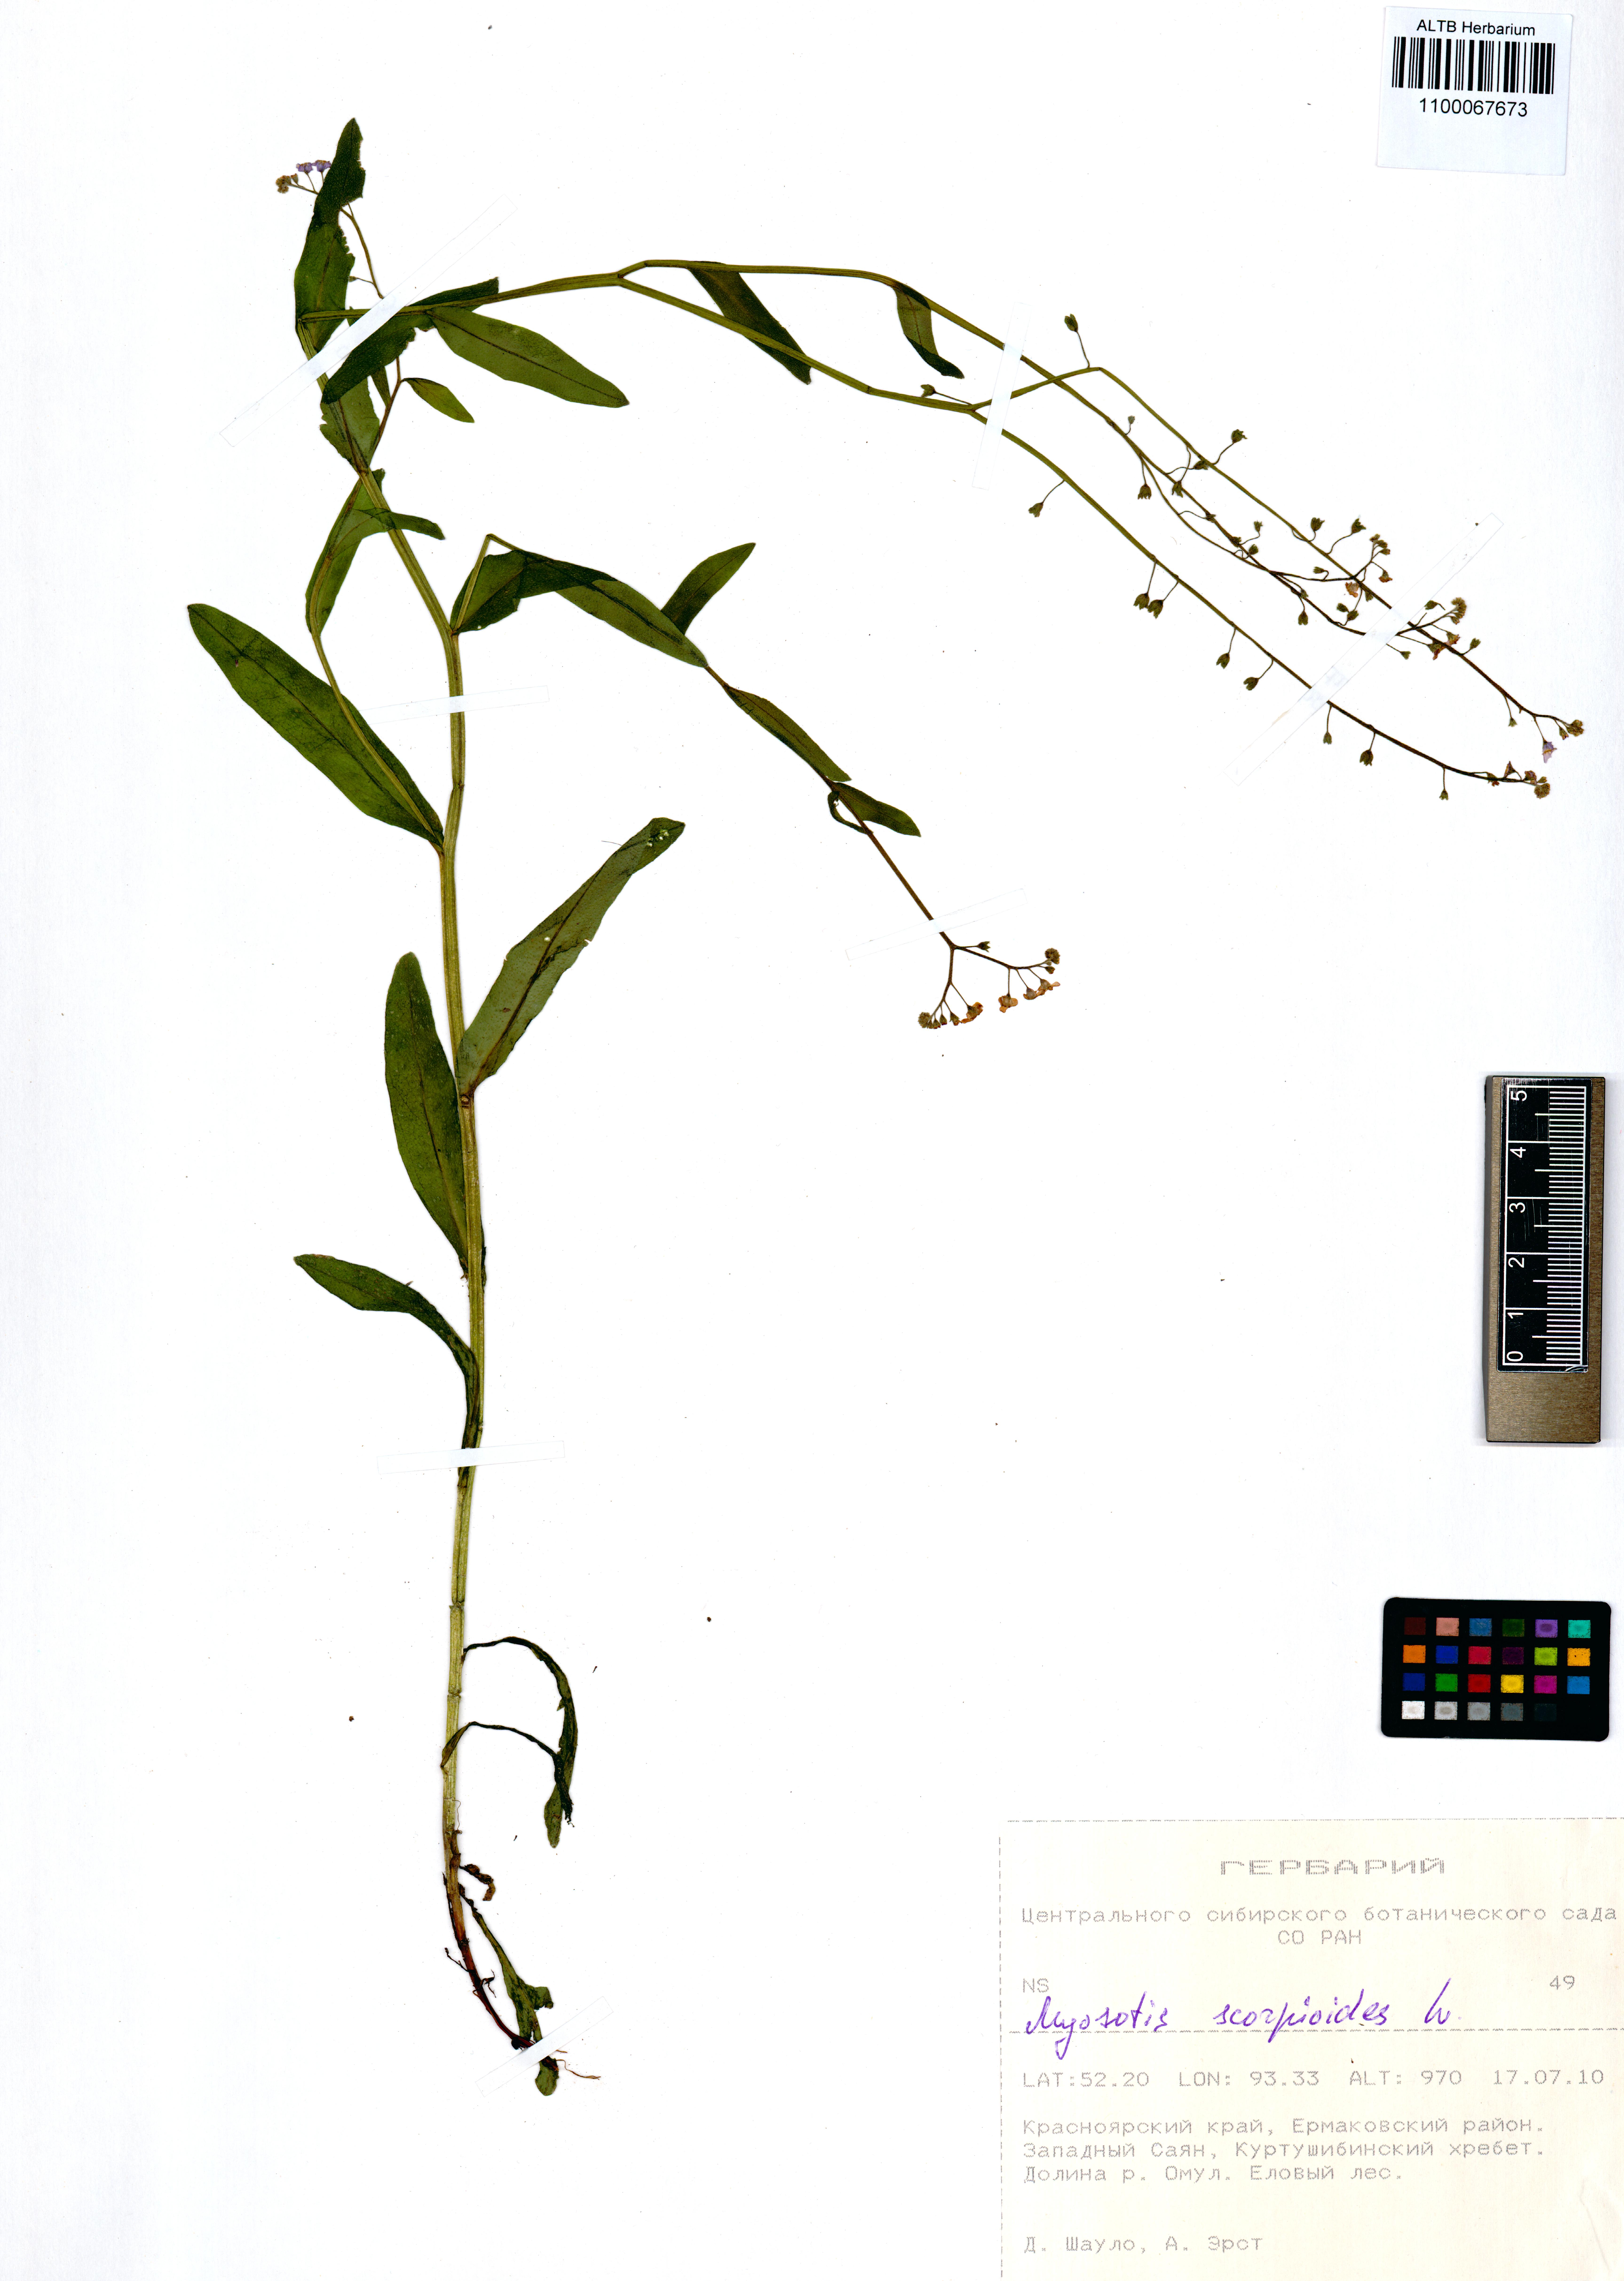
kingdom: Plantae
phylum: Tracheophyta
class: Magnoliopsida
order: Boraginales
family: Boraginaceae
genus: Myosotis
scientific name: Myosotis scorpioides
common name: Water forget-me-not
